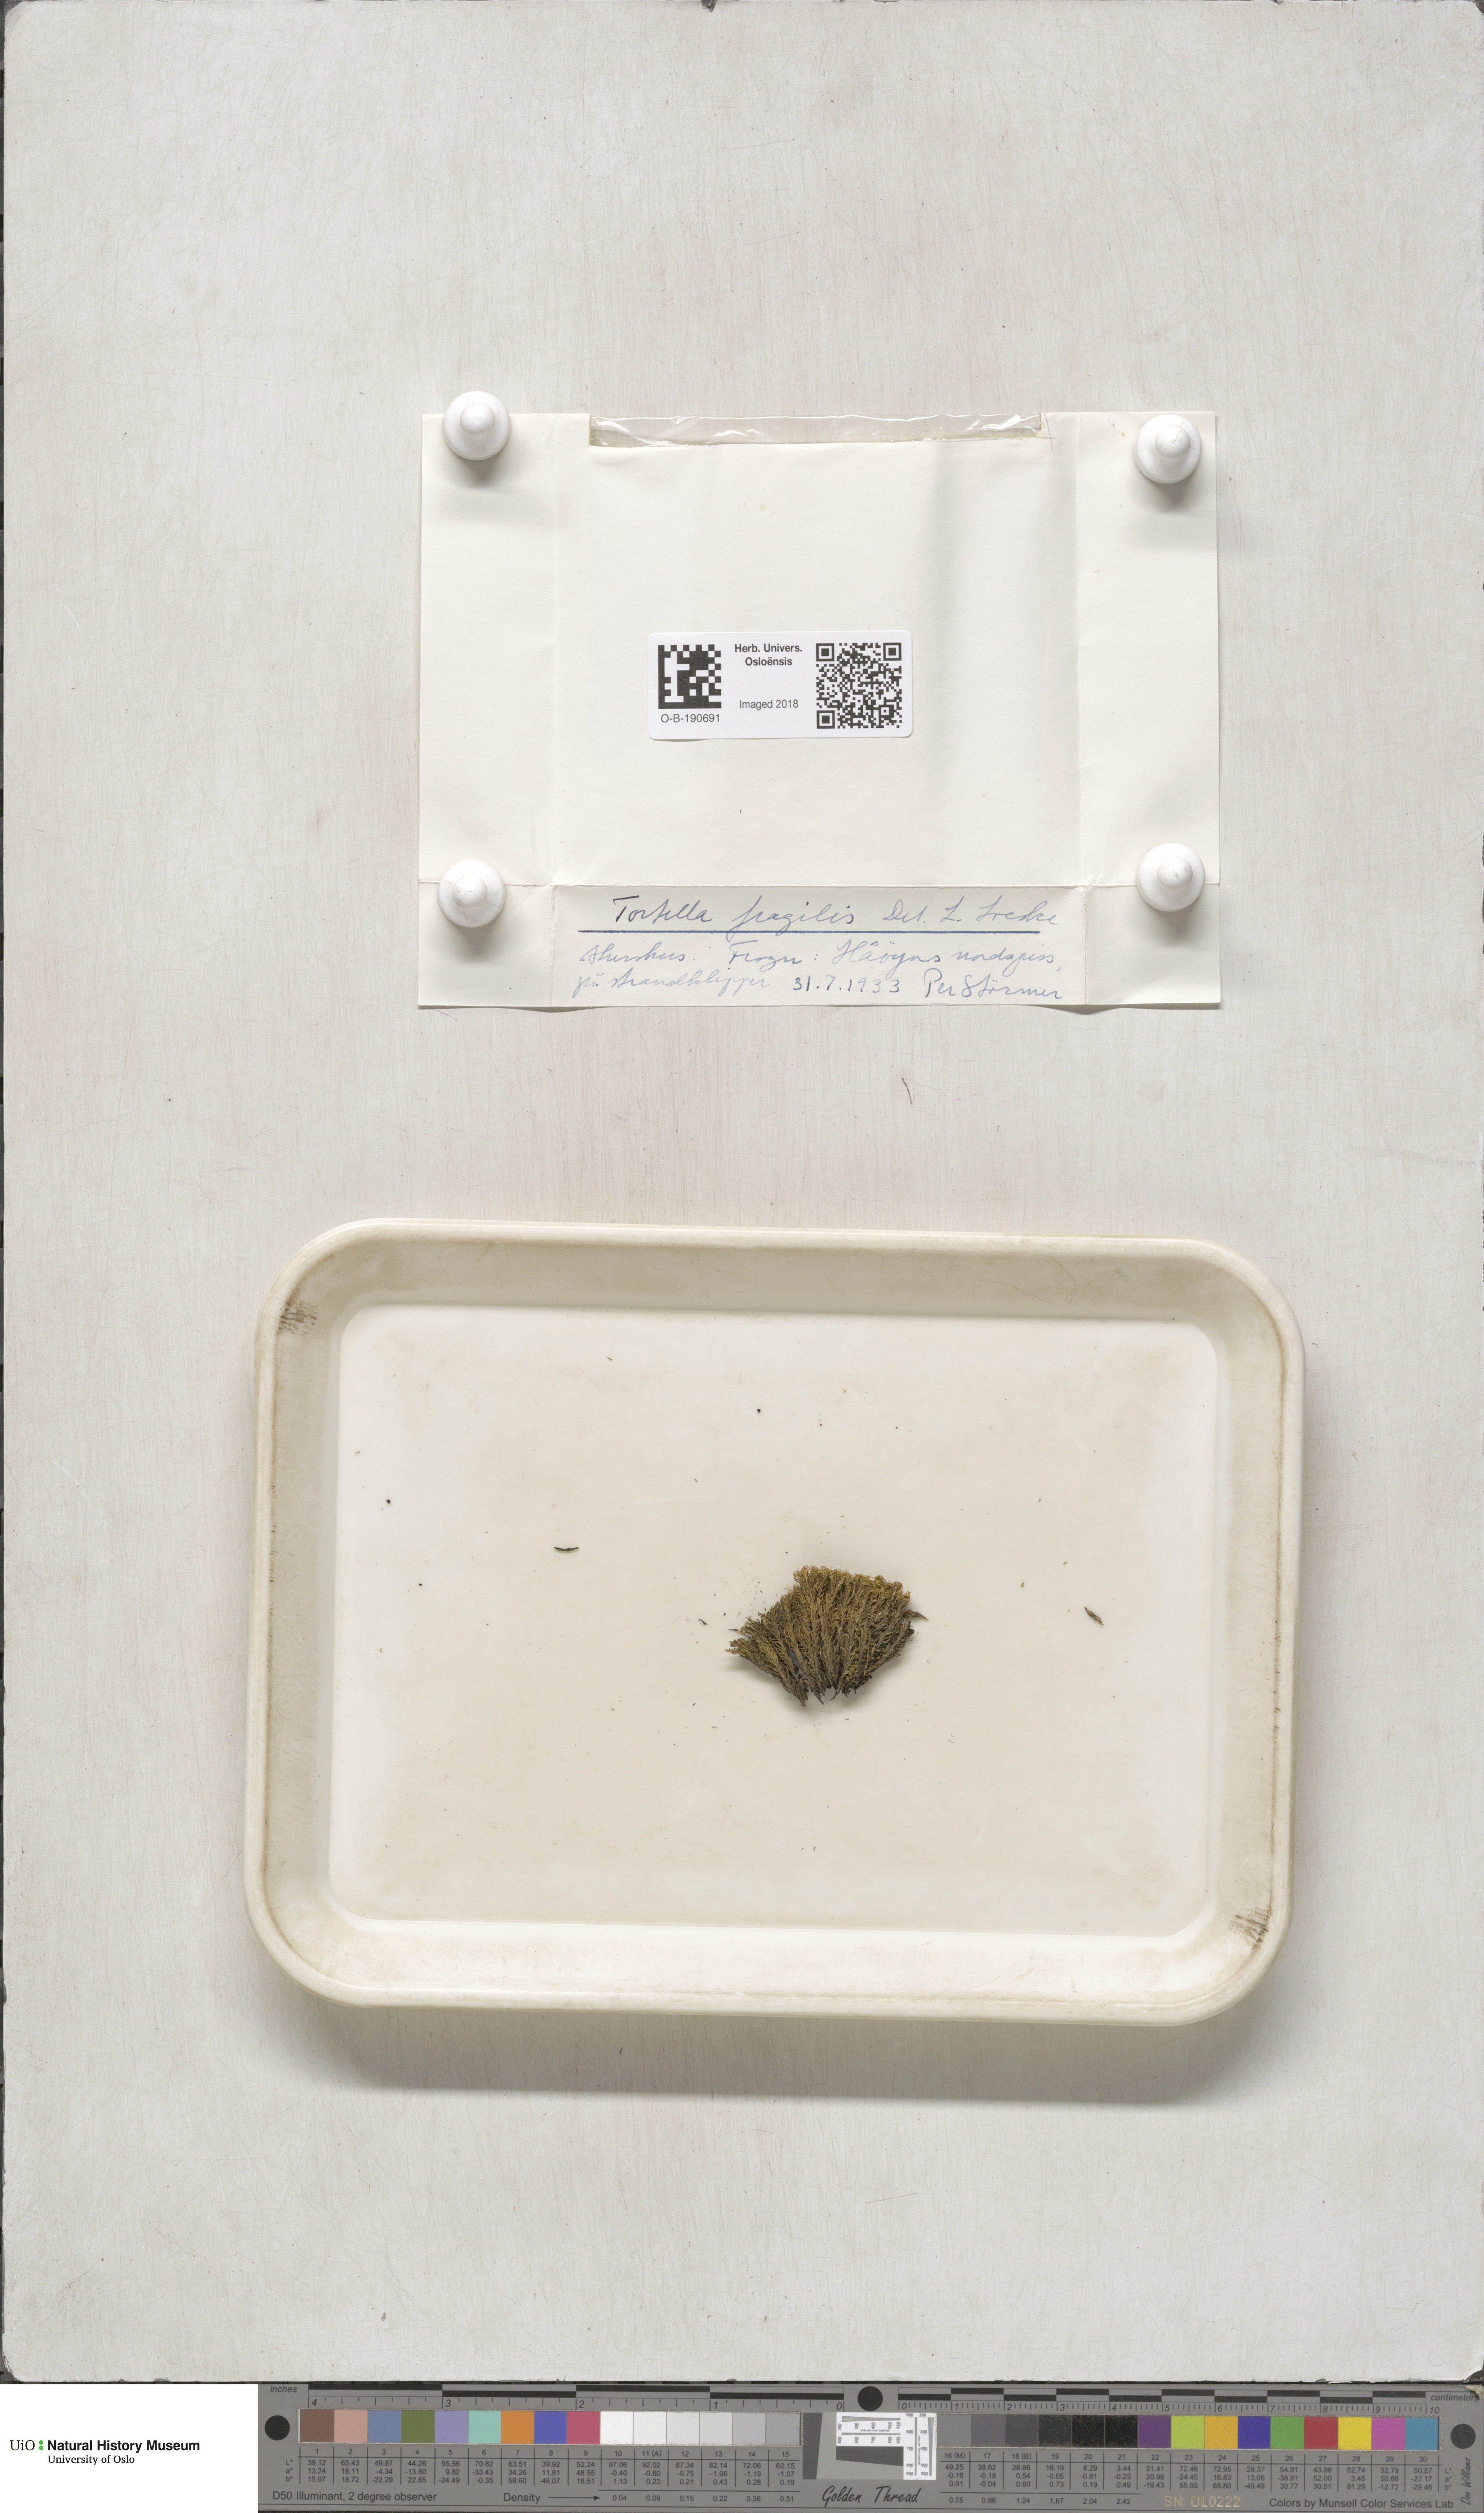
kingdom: Plantae
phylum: Bryophyta
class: Bryopsida
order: Pottiales
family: Pottiaceae
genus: Tortella
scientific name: Tortella fragilis
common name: Fragile twisted moss
